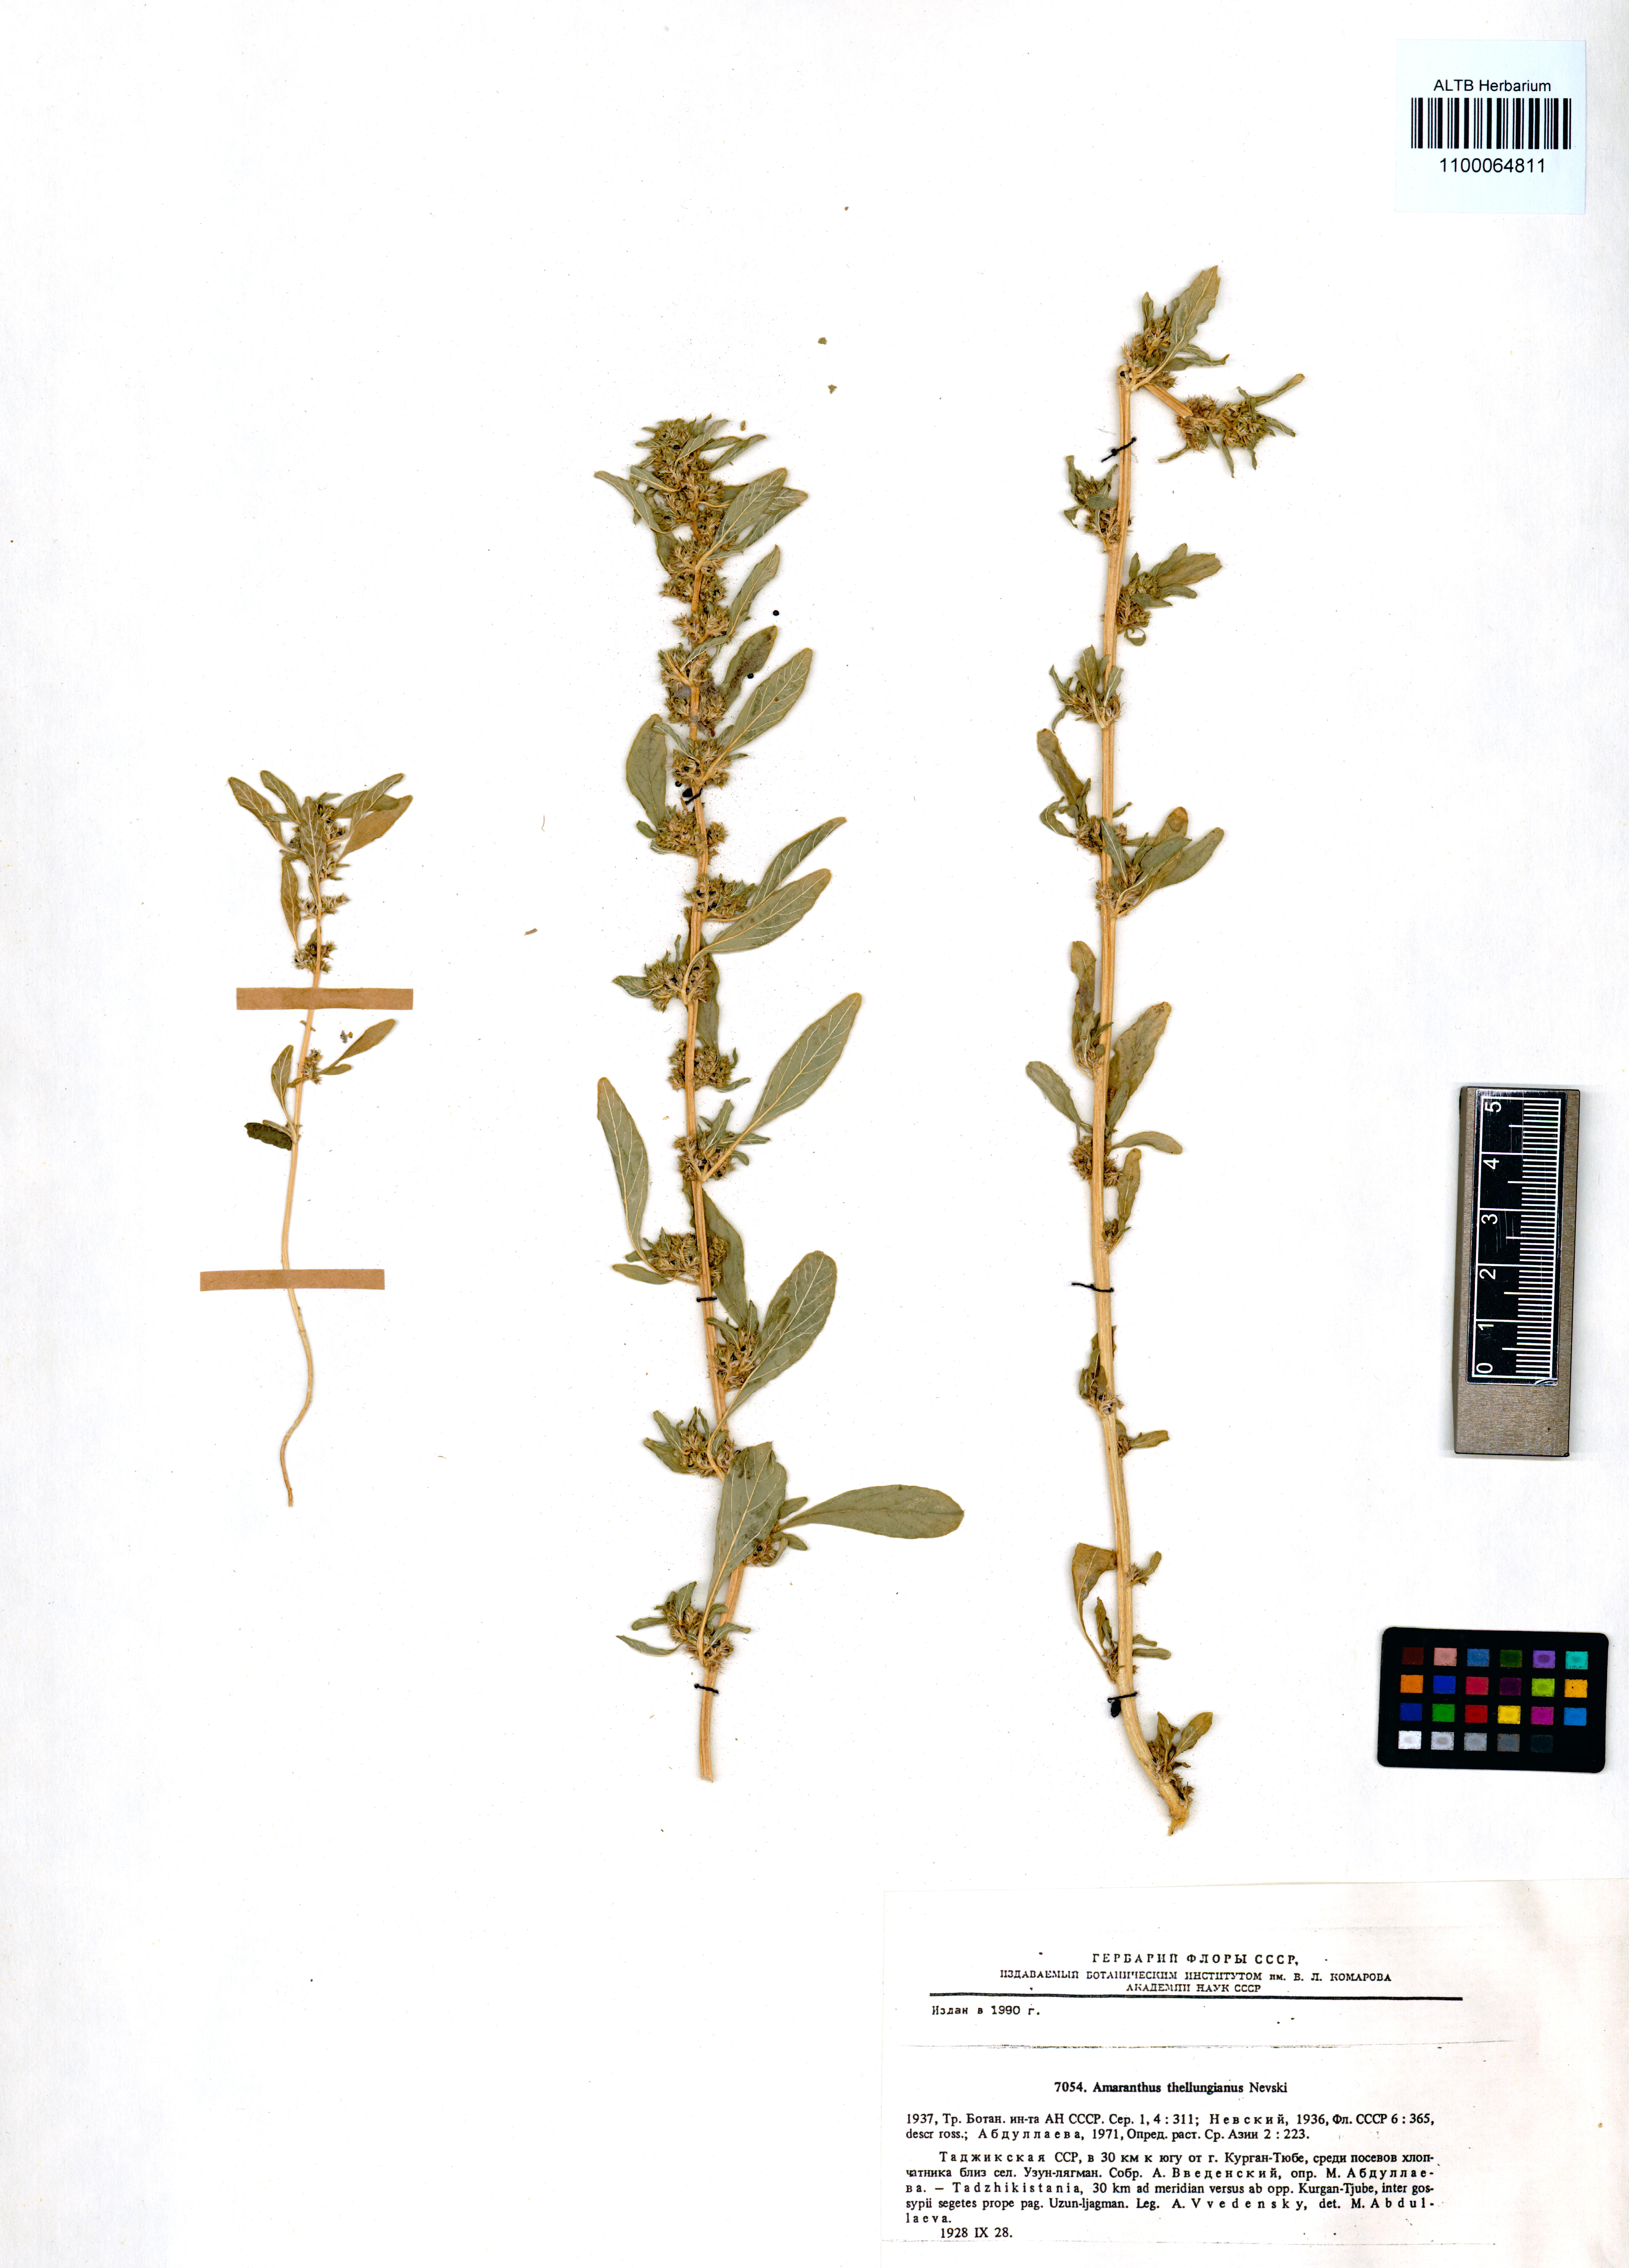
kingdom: Plantae
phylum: Tracheophyta
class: Magnoliopsida
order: Caryophyllales
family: Amaranthaceae
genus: Amaranthus
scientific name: Amaranthus graecizans
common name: Mediterranean amaranth
